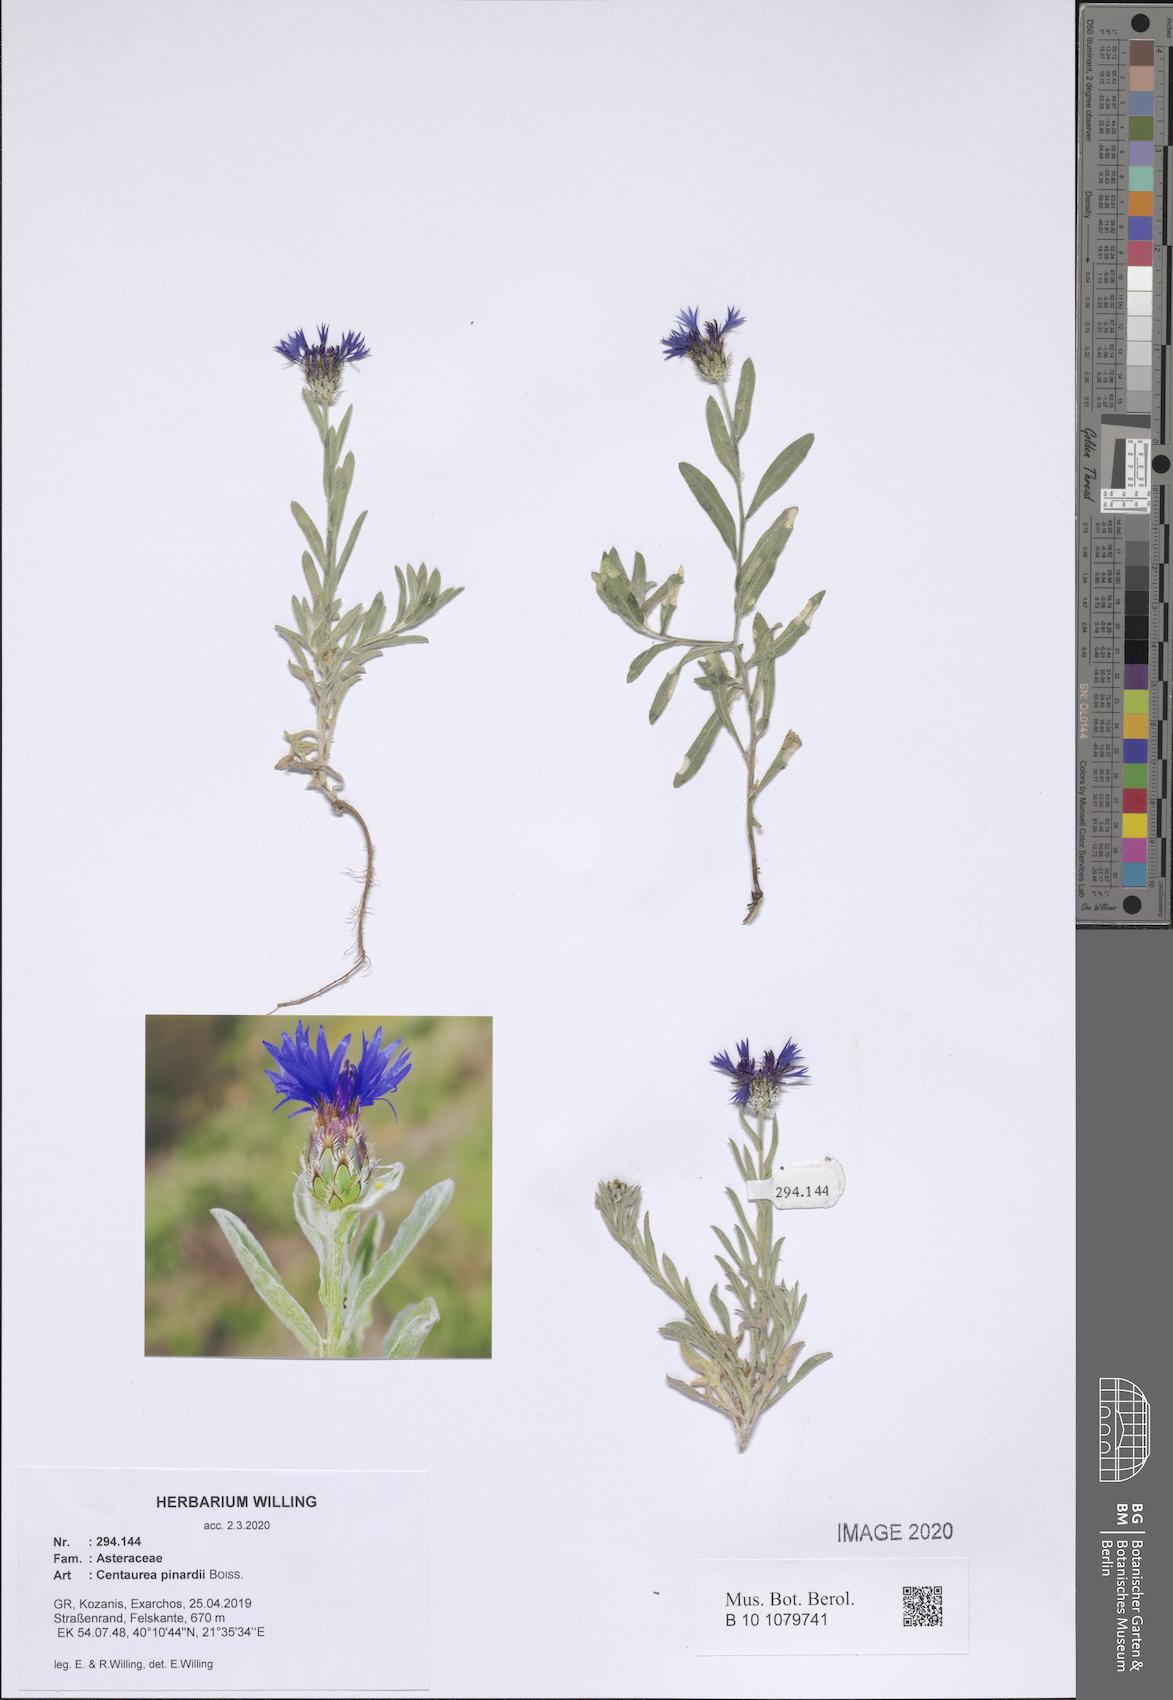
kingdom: Plantae
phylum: Tracheophyta
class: Magnoliopsida
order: Asterales
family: Asteraceae
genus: Centaurea
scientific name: Centaurea pinardii
